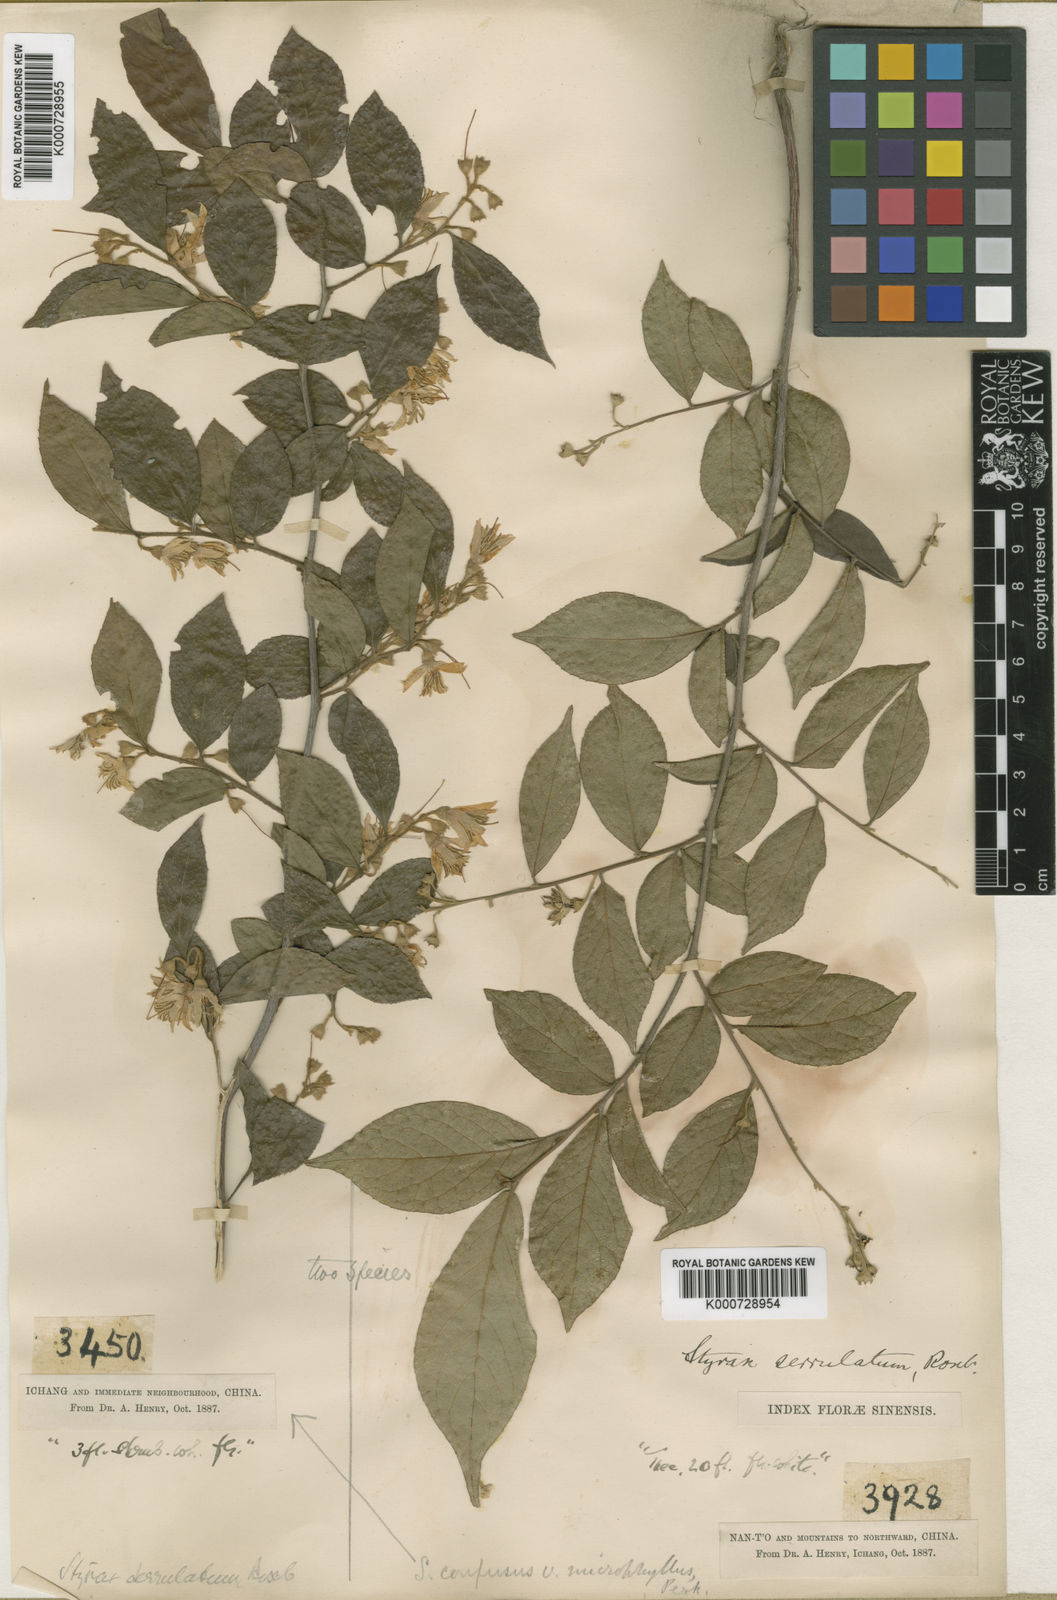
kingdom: Plantae
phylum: Tracheophyta
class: Magnoliopsida
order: Ericales
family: Styracaceae
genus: Styrax
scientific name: Styrax confusus
